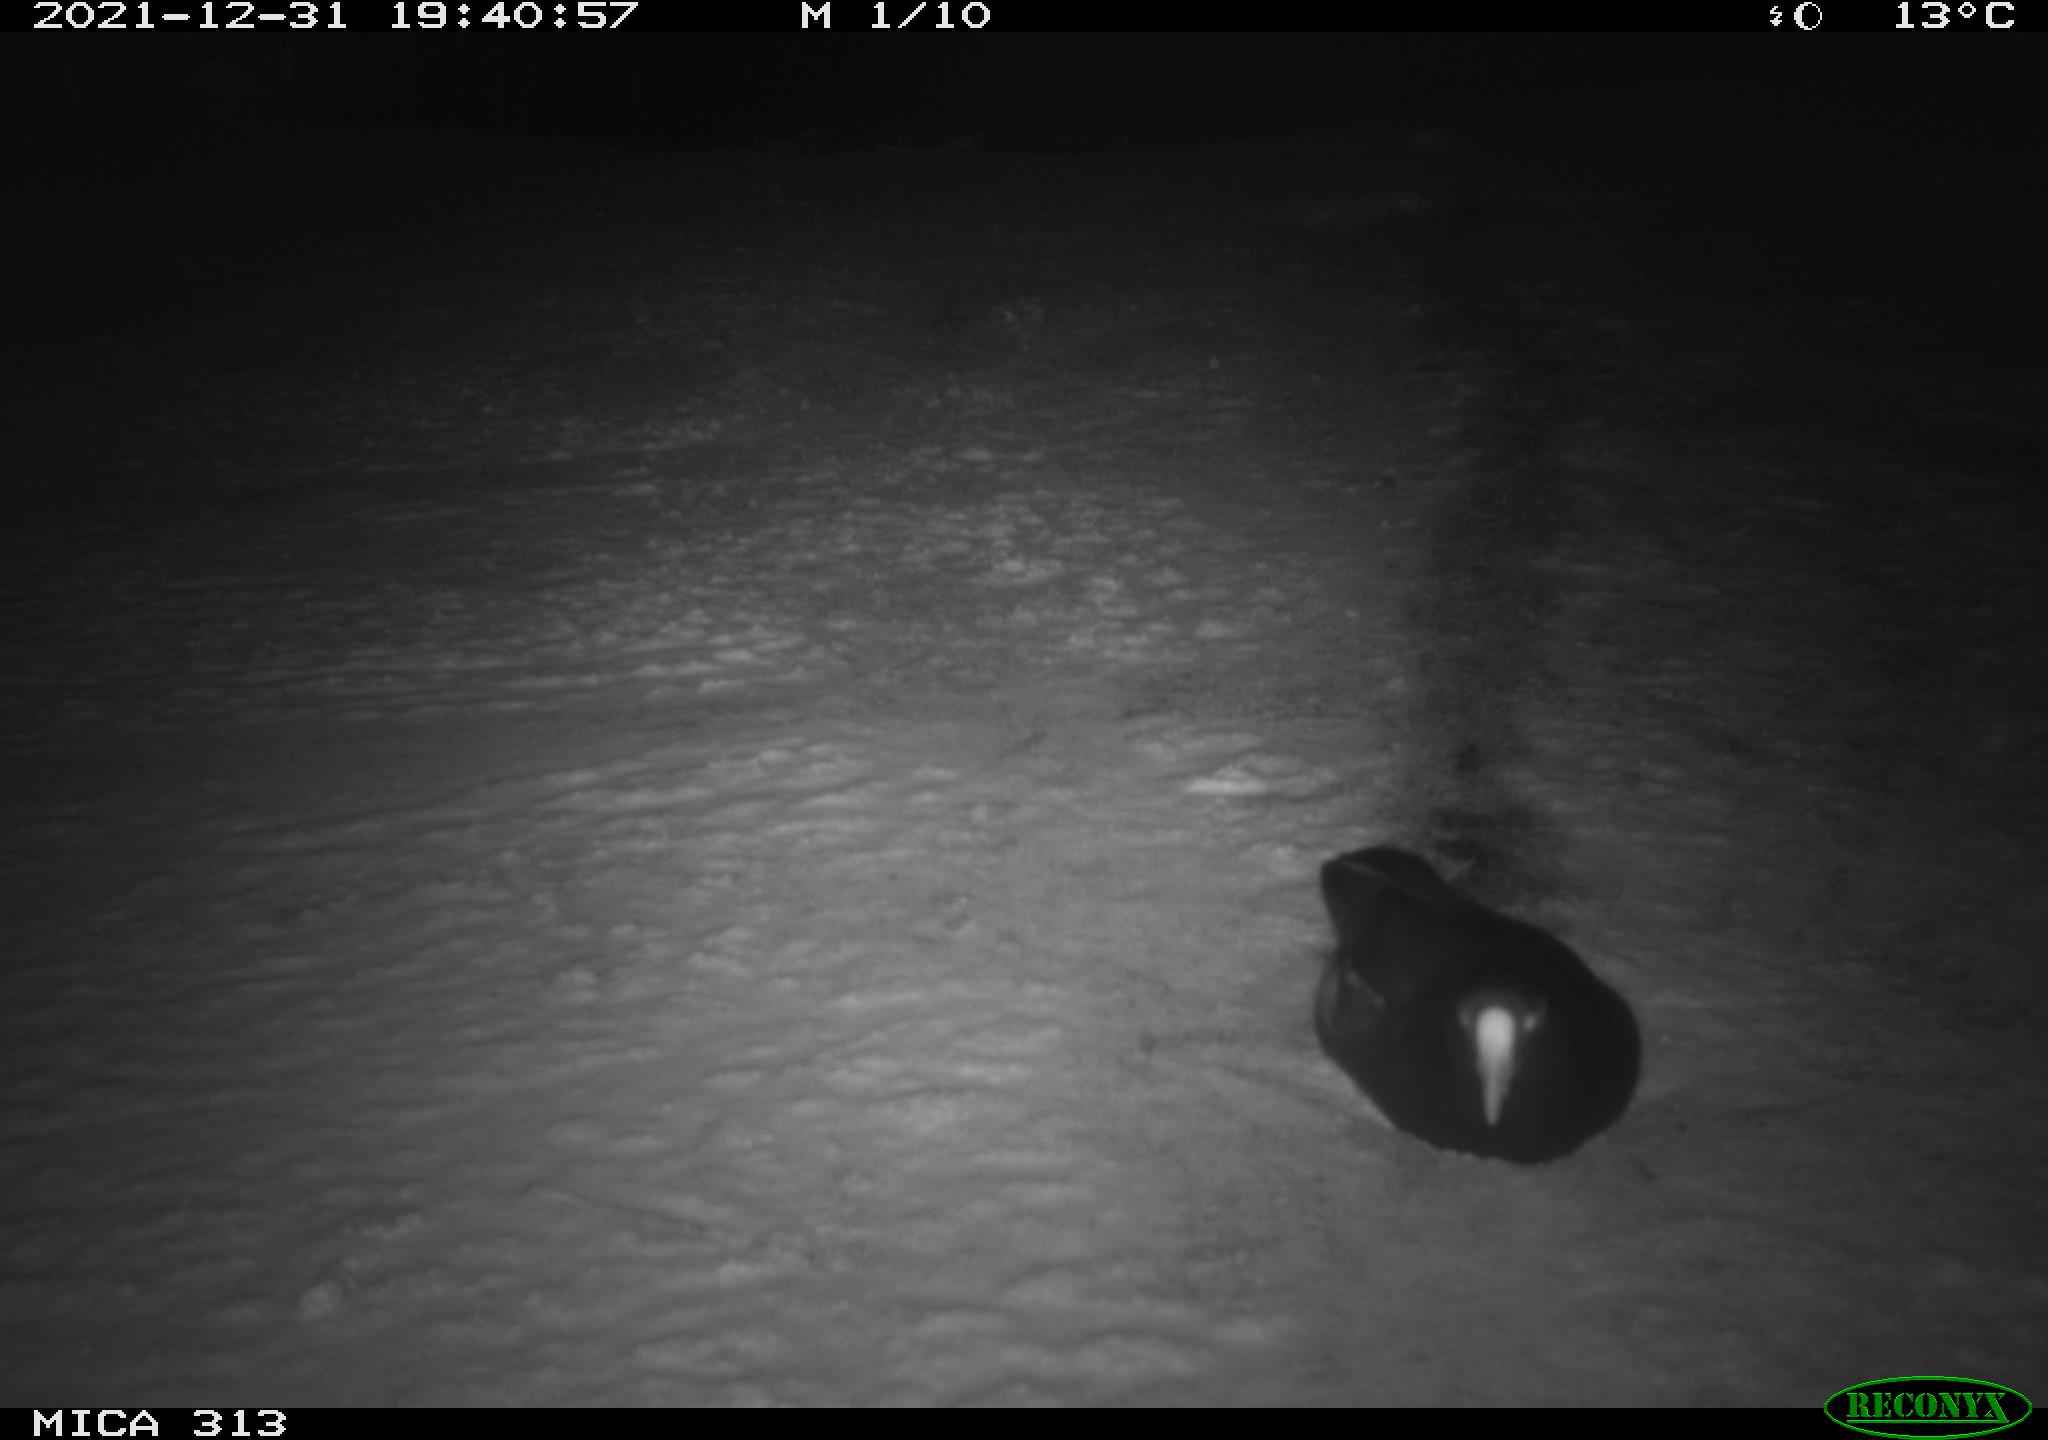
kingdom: Animalia
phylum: Chordata
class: Aves
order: Gruiformes
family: Rallidae
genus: Gallinula
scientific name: Gallinula chloropus
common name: Common moorhen
